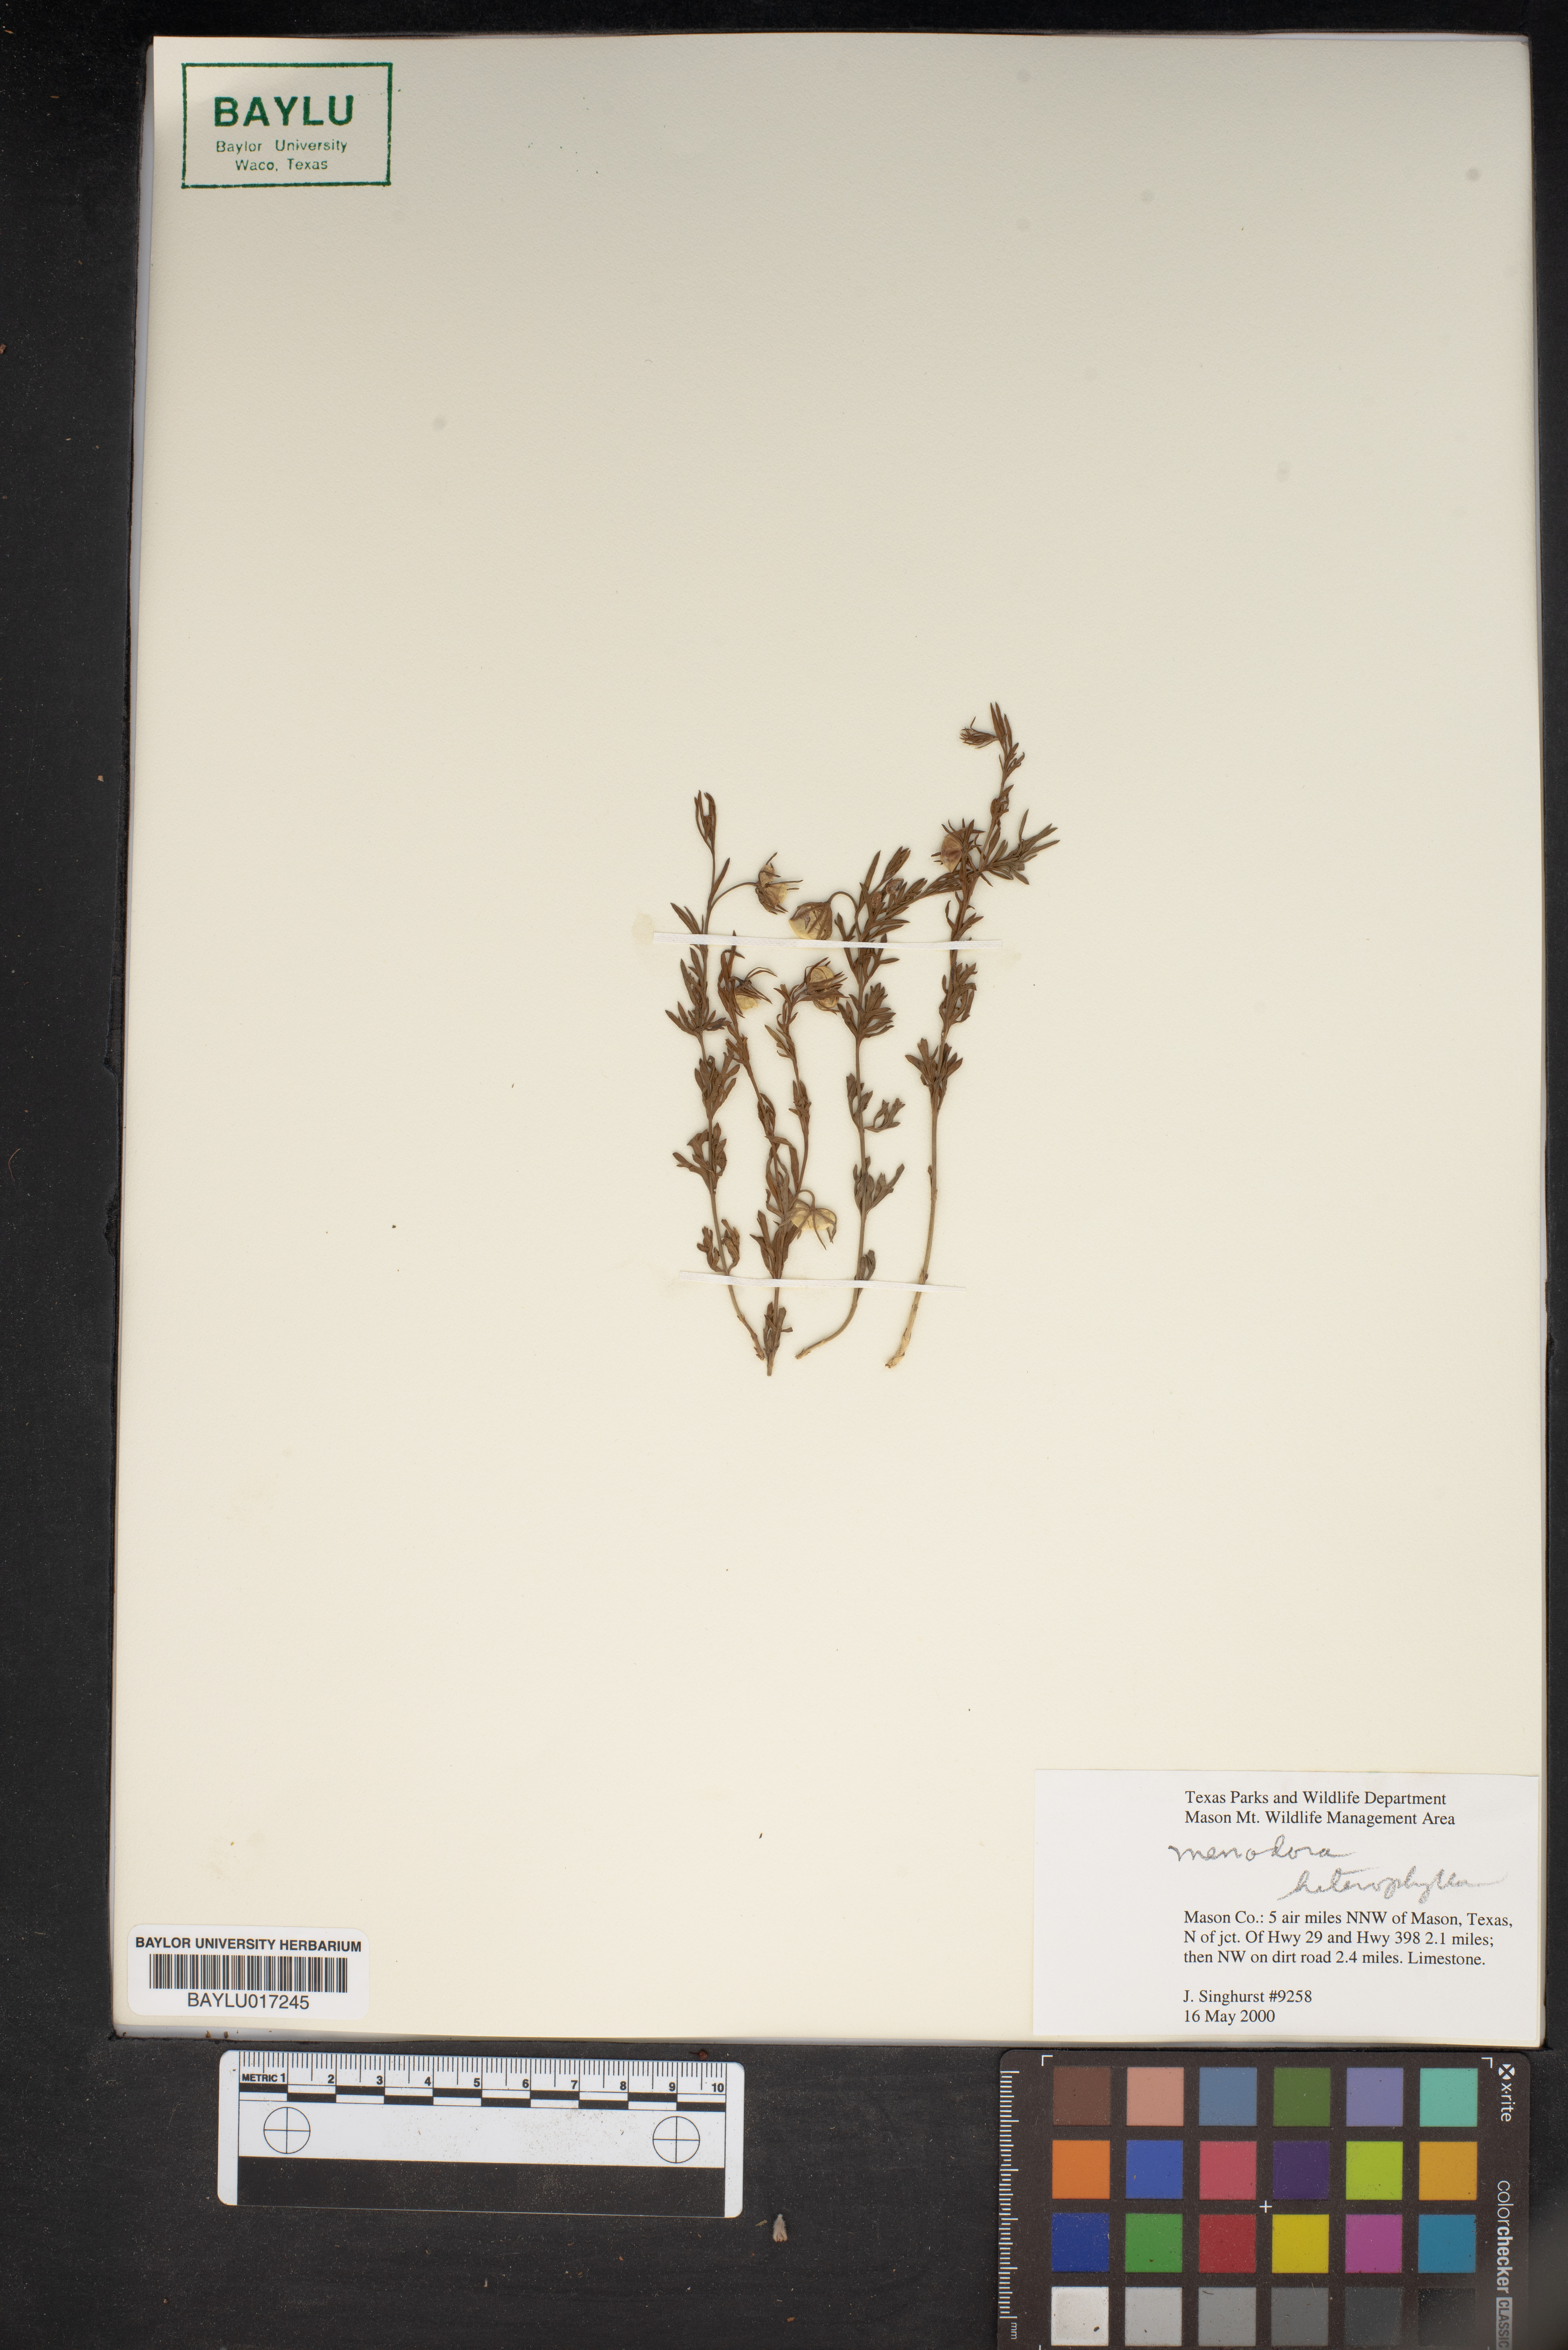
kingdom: Plantae
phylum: Tracheophyta
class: Magnoliopsida
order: Lamiales
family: Oleaceae
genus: Menodora
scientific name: Menodora heterophylla
